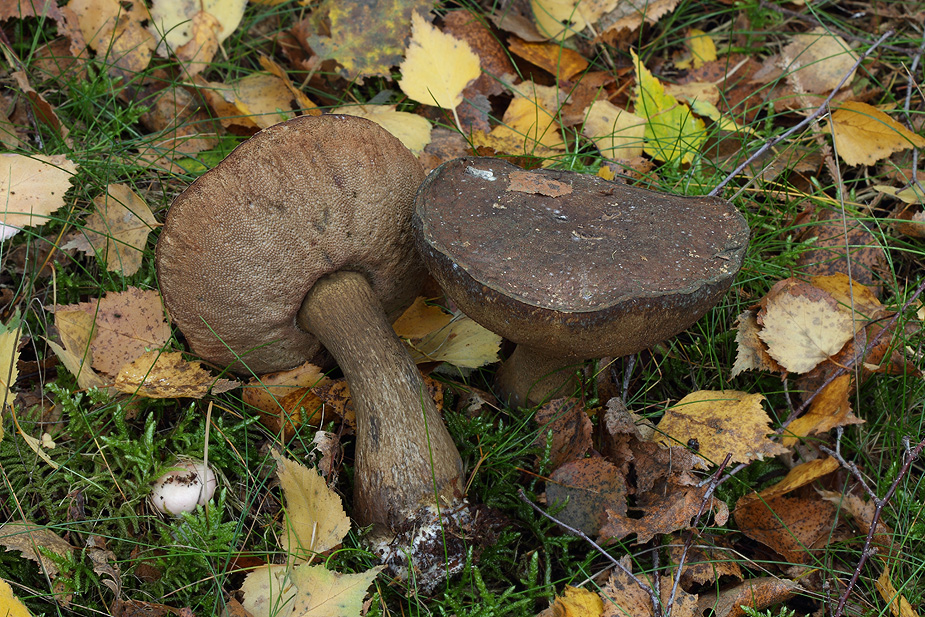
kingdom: Fungi
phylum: Basidiomycota
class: Agaricomycetes
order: Boletales
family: Boletaceae
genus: Porphyrellus
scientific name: Porphyrellus porphyrosporus
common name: sodrørhat
